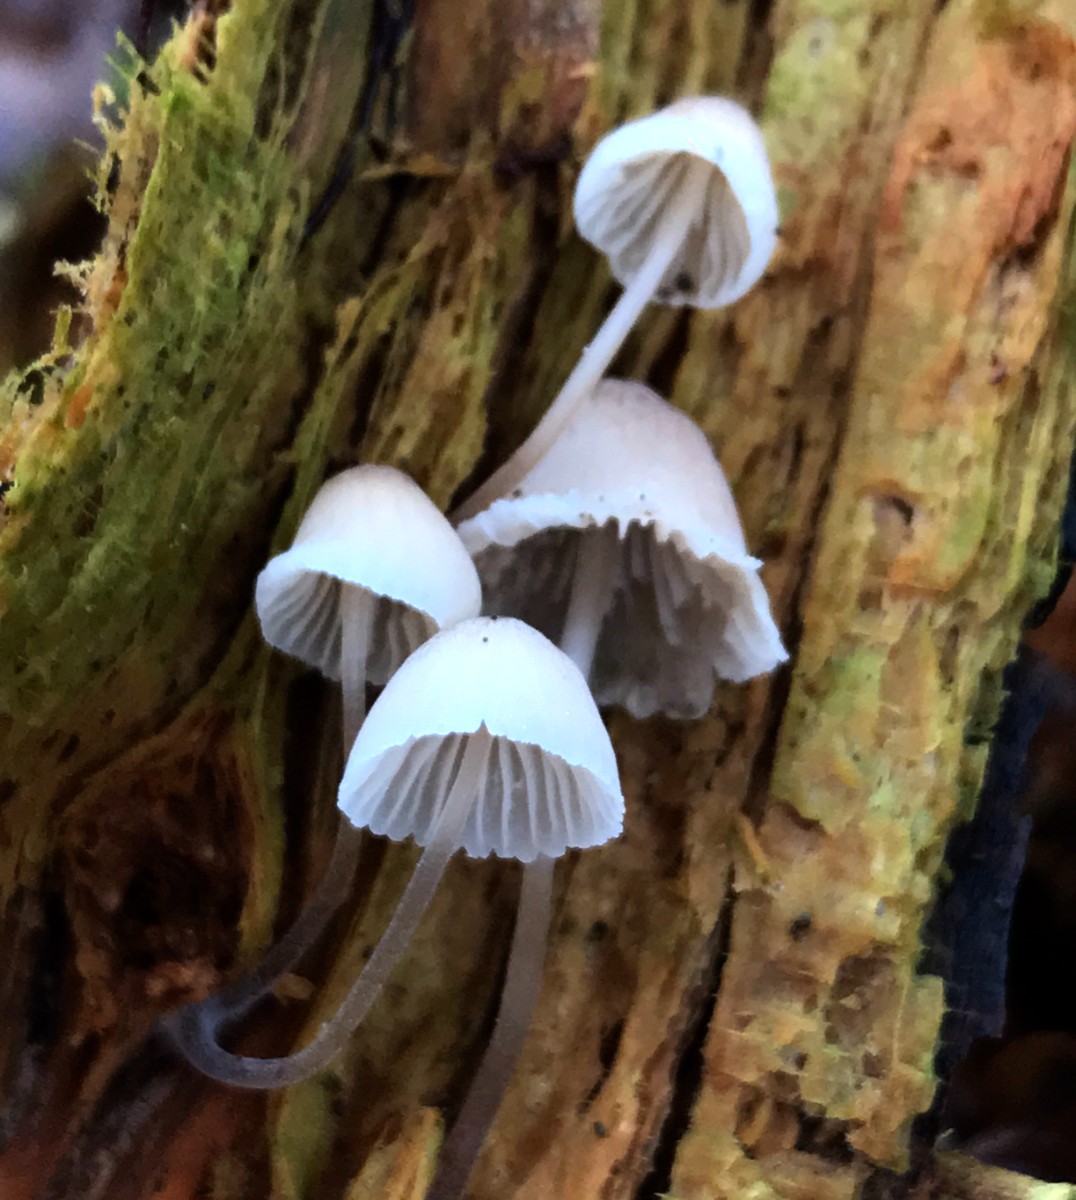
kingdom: Fungi
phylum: Basidiomycota
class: Agaricomycetes
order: Agaricales
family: Mycenaceae
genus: Mycena
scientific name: Mycena
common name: huesvamp
